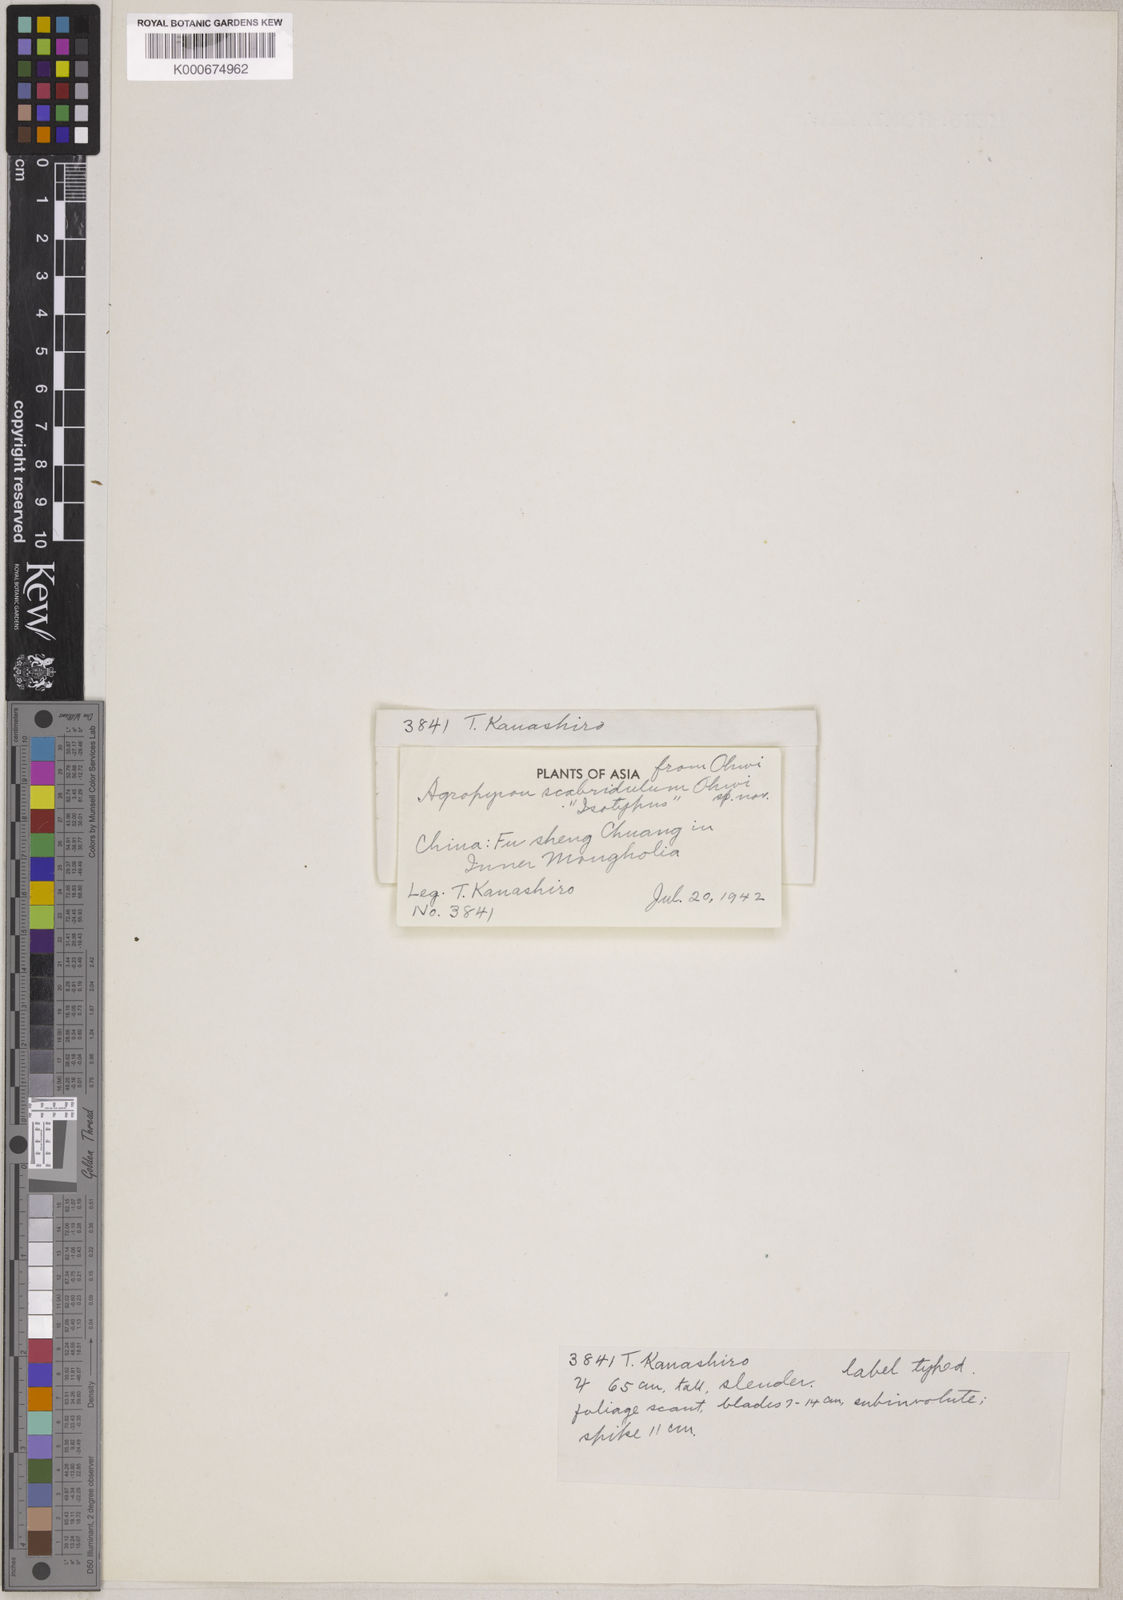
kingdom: Plantae
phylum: Tracheophyta
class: Liliopsida
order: Poales
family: Poaceae
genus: Elymus
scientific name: Elymus scabridulus
